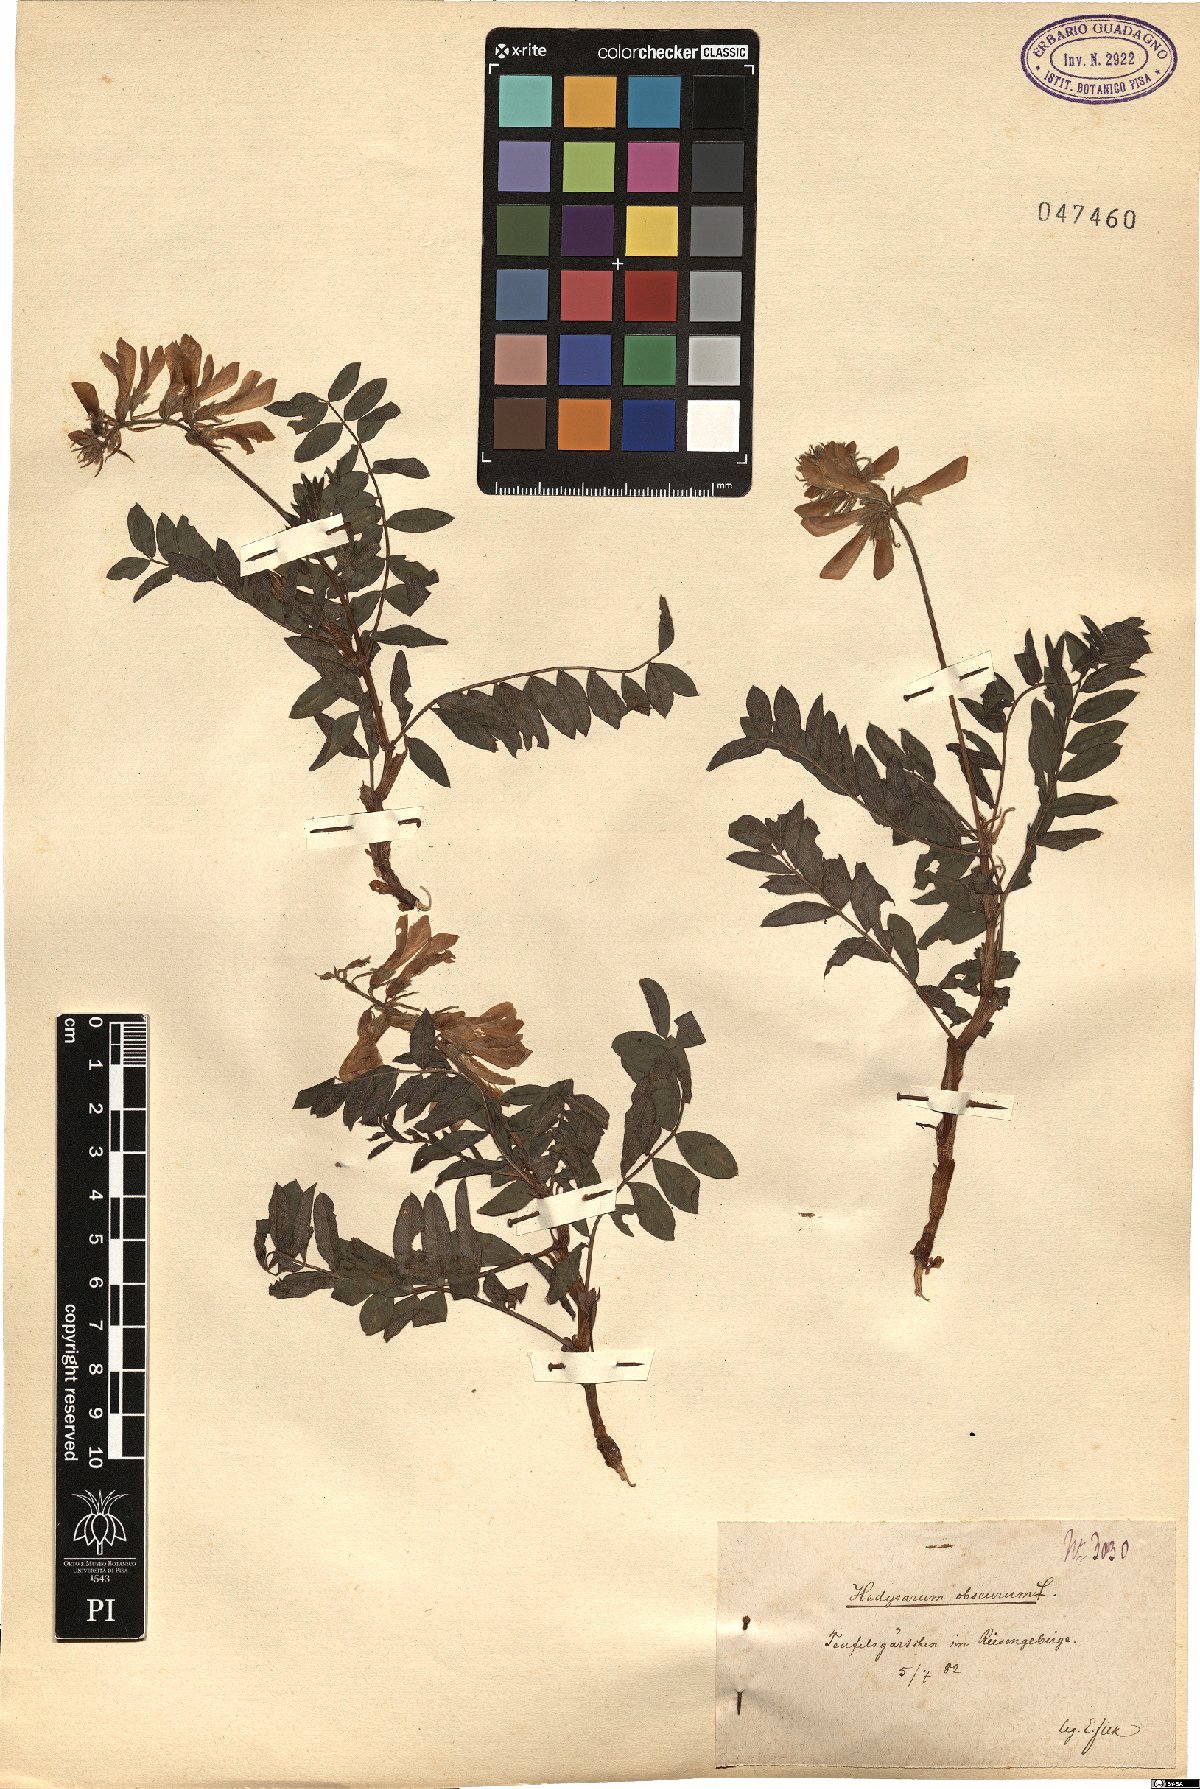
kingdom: Plantae
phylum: Tracheophyta
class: Magnoliopsida
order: Fabales
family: Fabaceae
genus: Hedysarum
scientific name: Hedysarum hedysaroides
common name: Alpine french-honeysuckle
